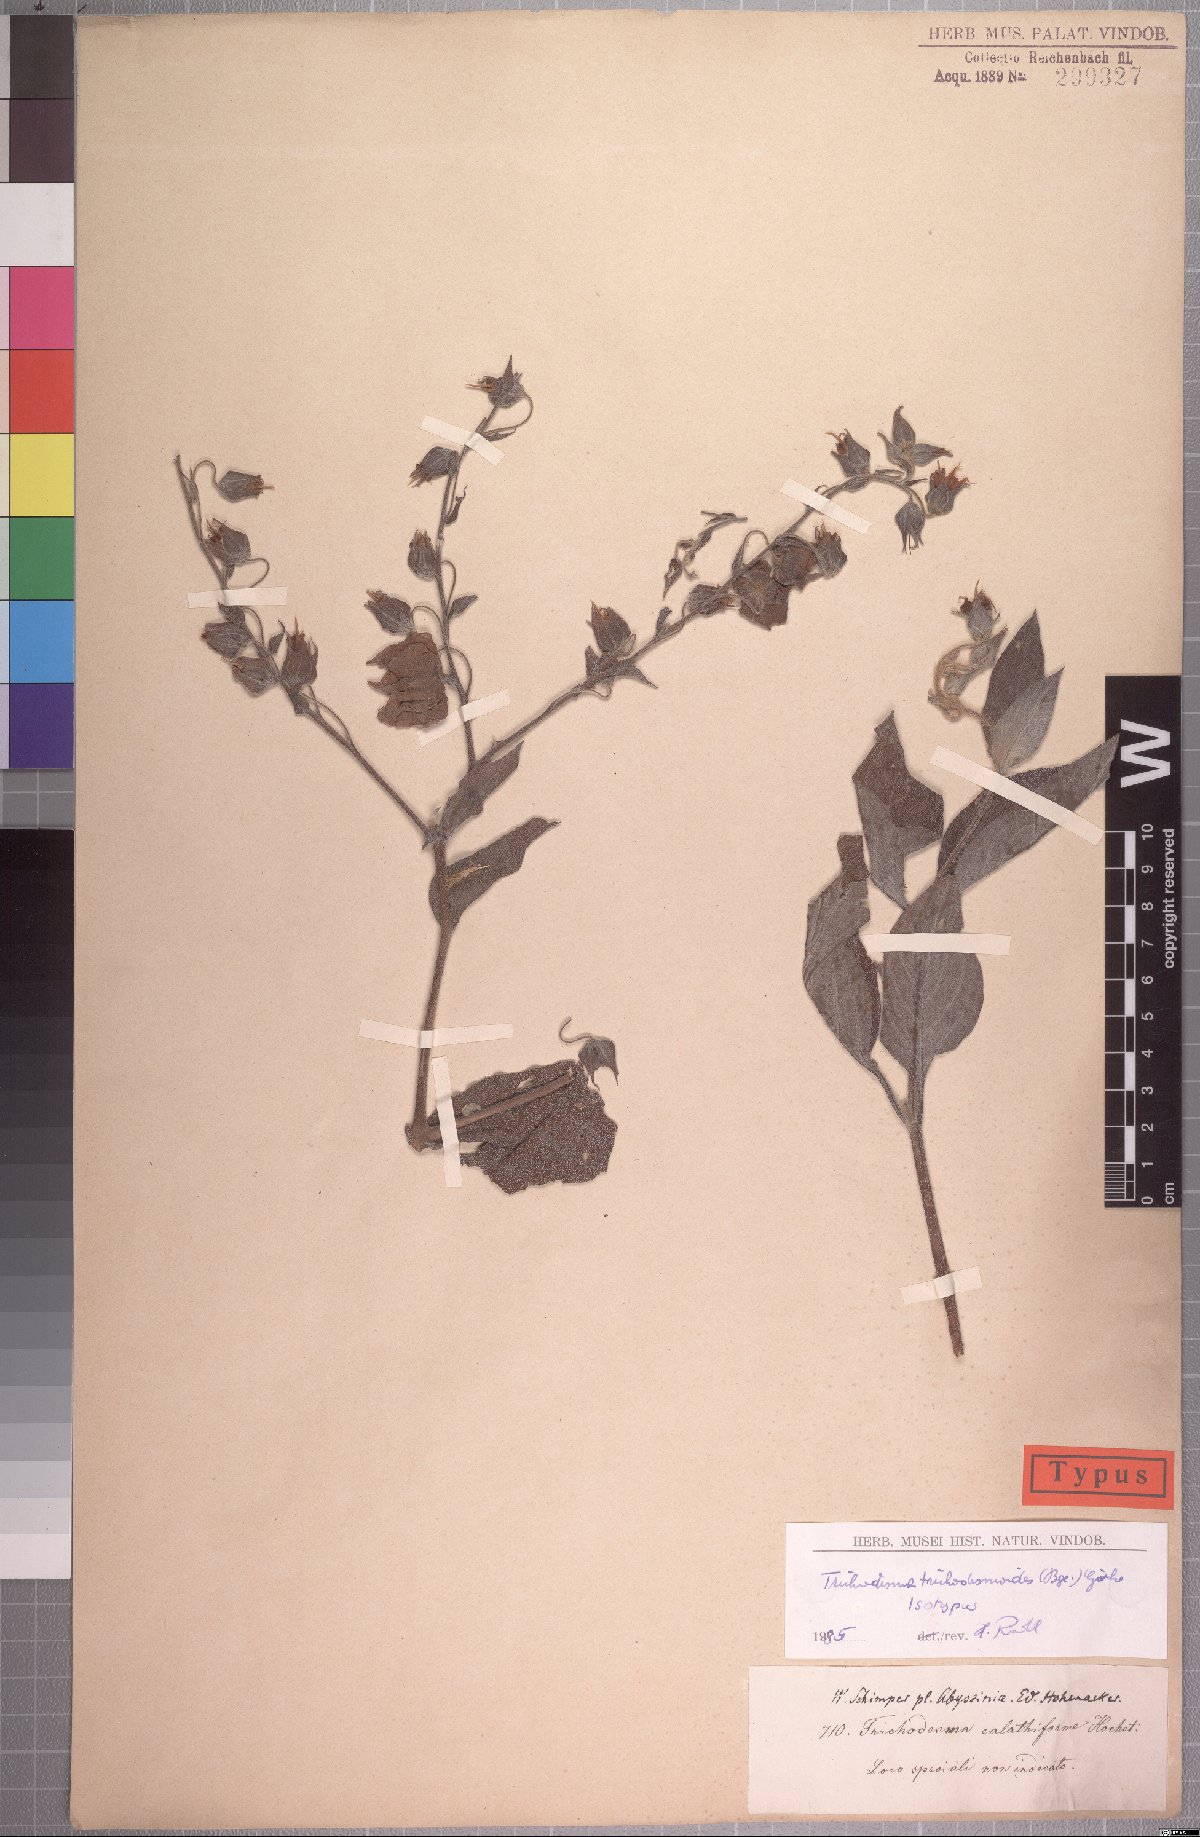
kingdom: Plantae
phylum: Tracheophyta
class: Magnoliopsida
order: Boraginales
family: Boraginaceae
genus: Trichodesma
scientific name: Trichodesma trichodesmoides
